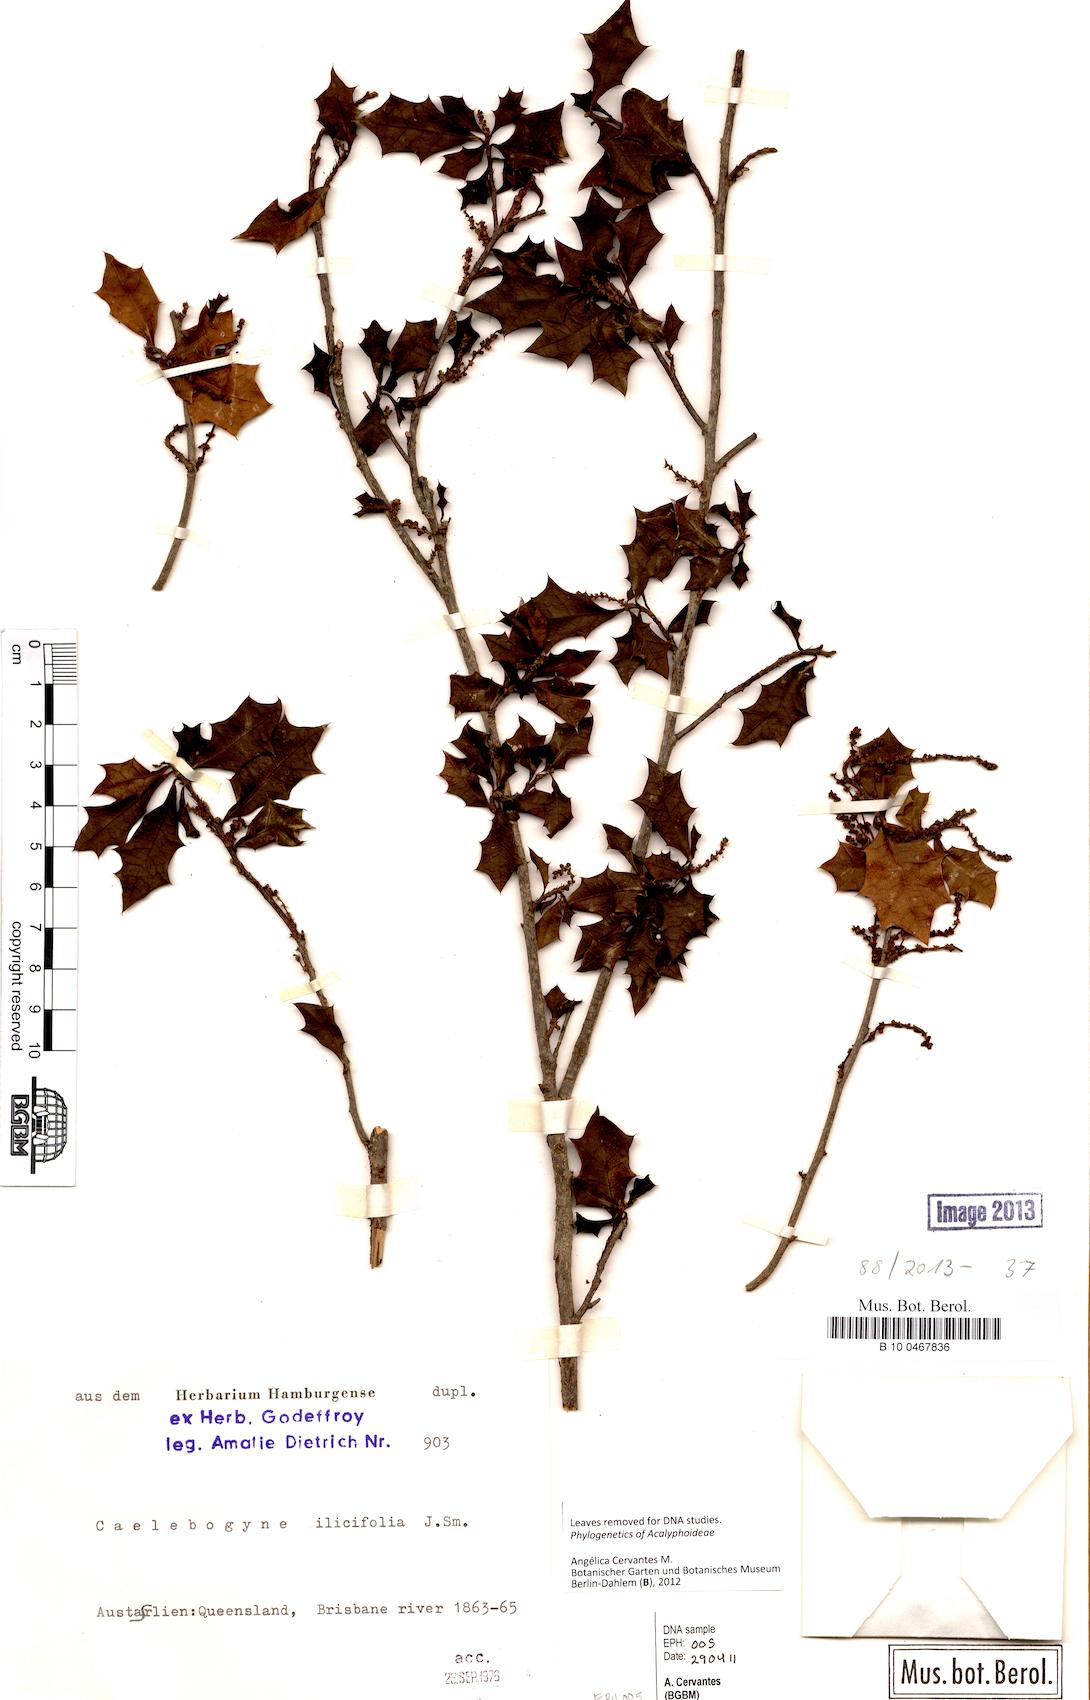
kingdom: Plantae
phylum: Tracheophyta
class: Magnoliopsida
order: Malpighiales
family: Euphorbiaceae
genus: Alchornea
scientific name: Alchornea ilicifolia
